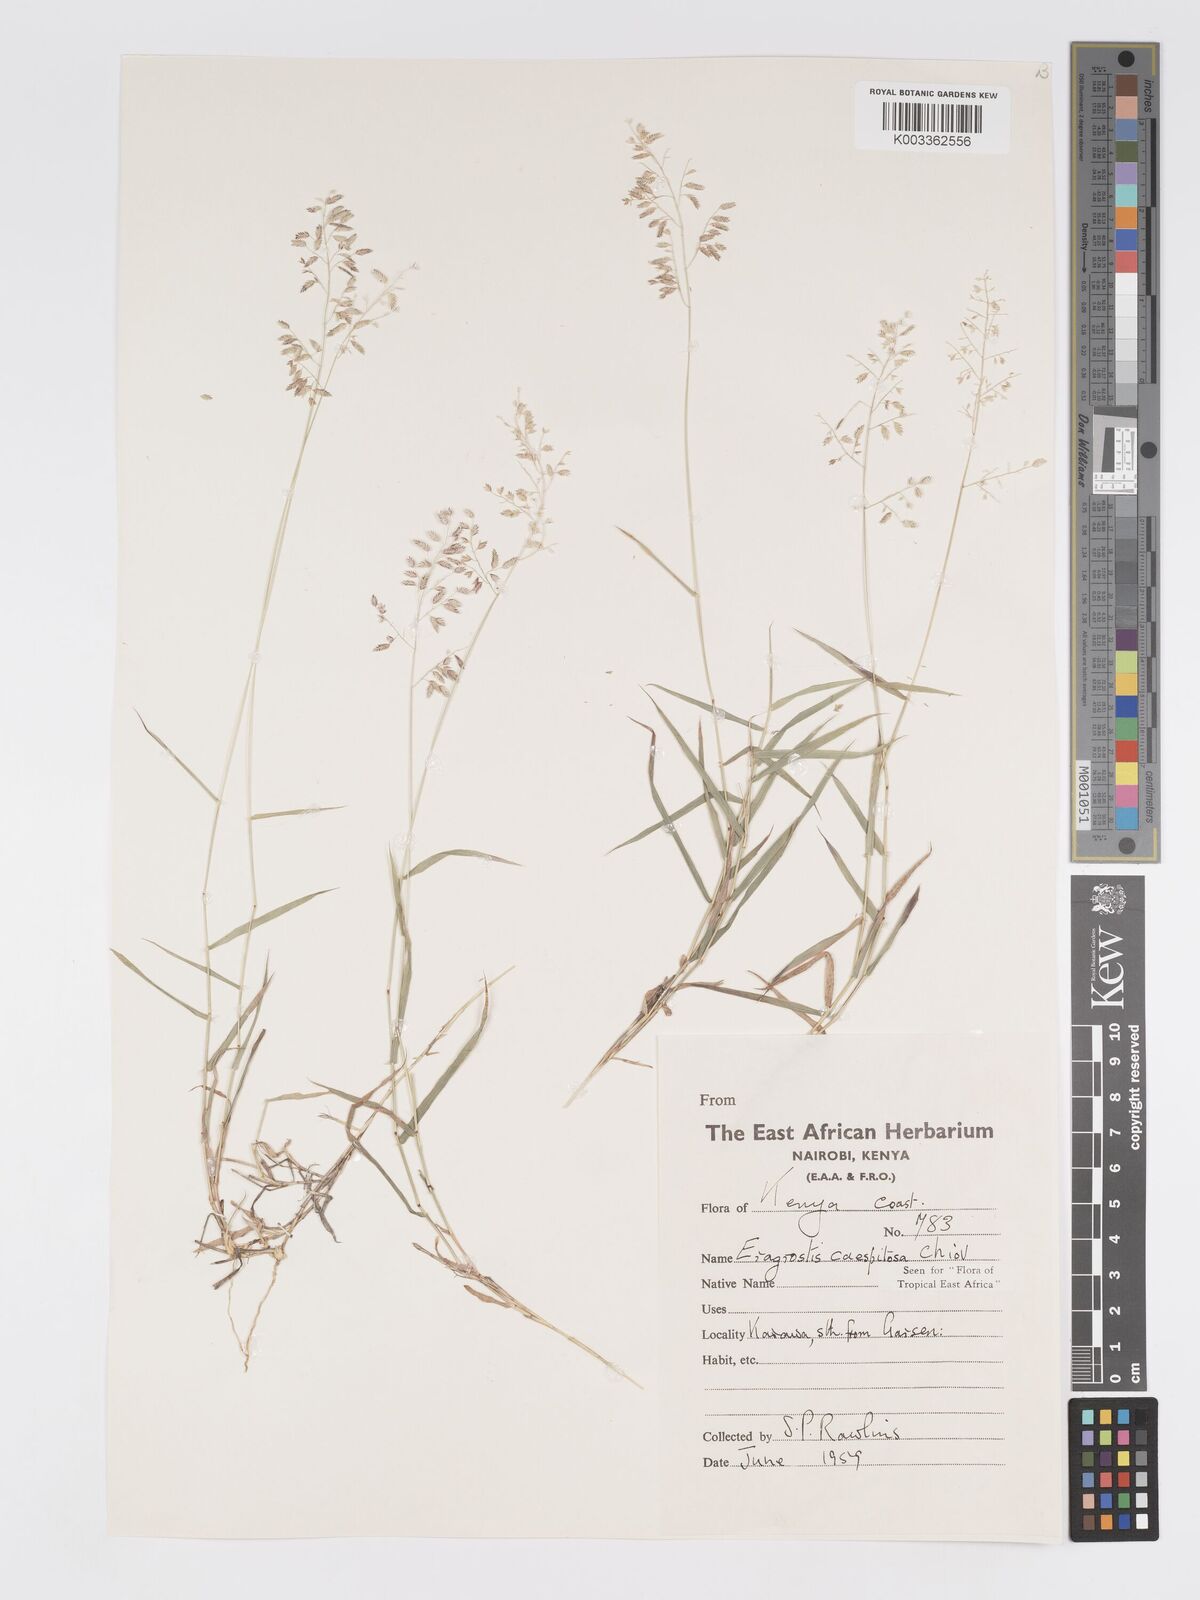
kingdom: Plantae
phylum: Tracheophyta
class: Liliopsida
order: Poales
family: Poaceae
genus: Eragrostis
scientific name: Eragrostis caespitosa
